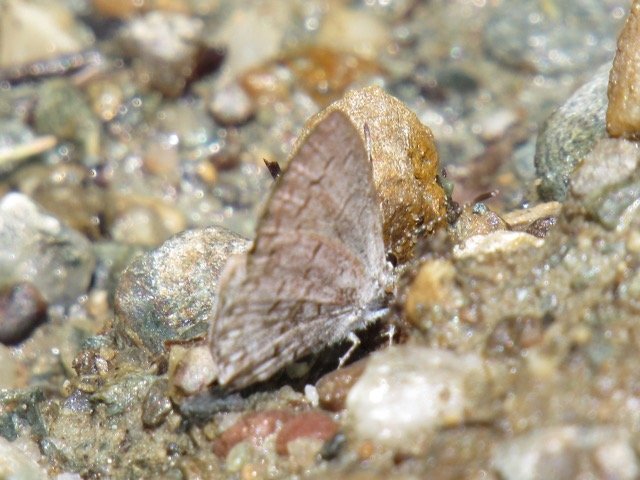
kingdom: Animalia
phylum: Arthropoda
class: Insecta
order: Lepidoptera
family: Lycaenidae
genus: Celastrina
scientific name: Celastrina
